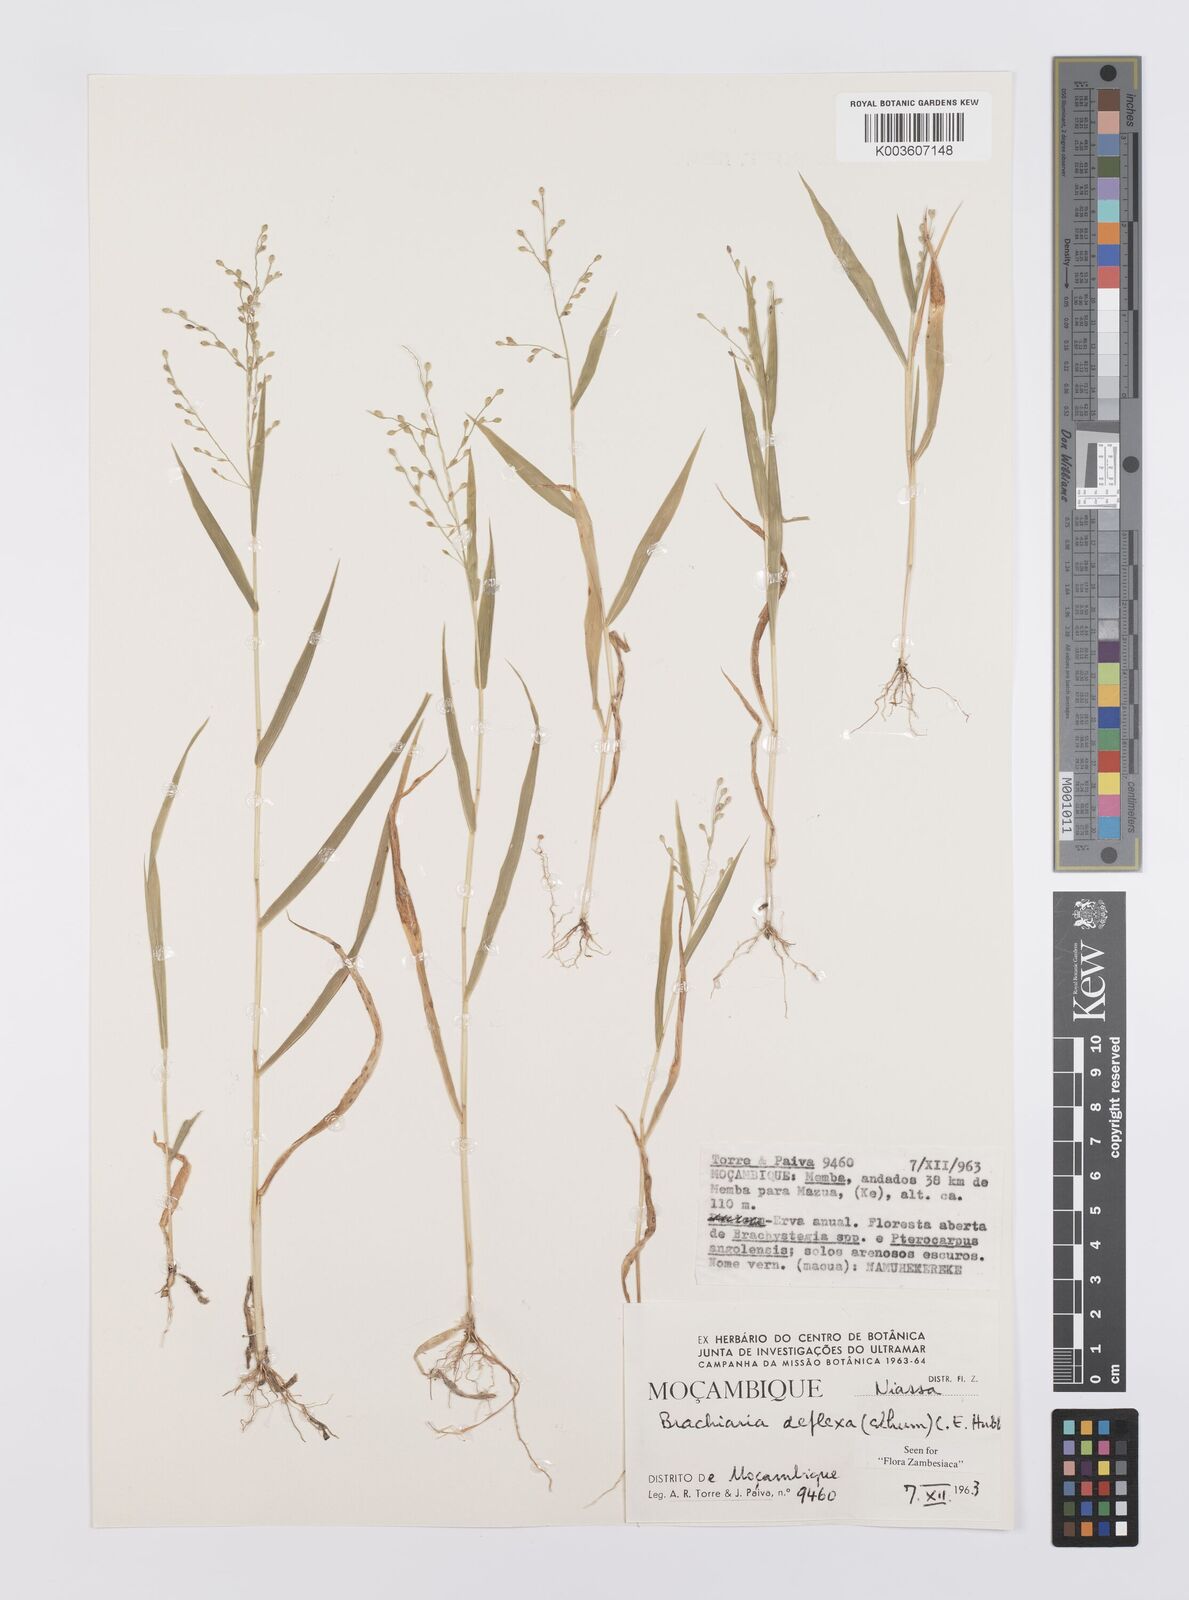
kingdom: Plantae
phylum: Tracheophyta
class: Liliopsida
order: Poales
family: Poaceae
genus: Urochloa
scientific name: Urochloa deflexa
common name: Guinea millet
